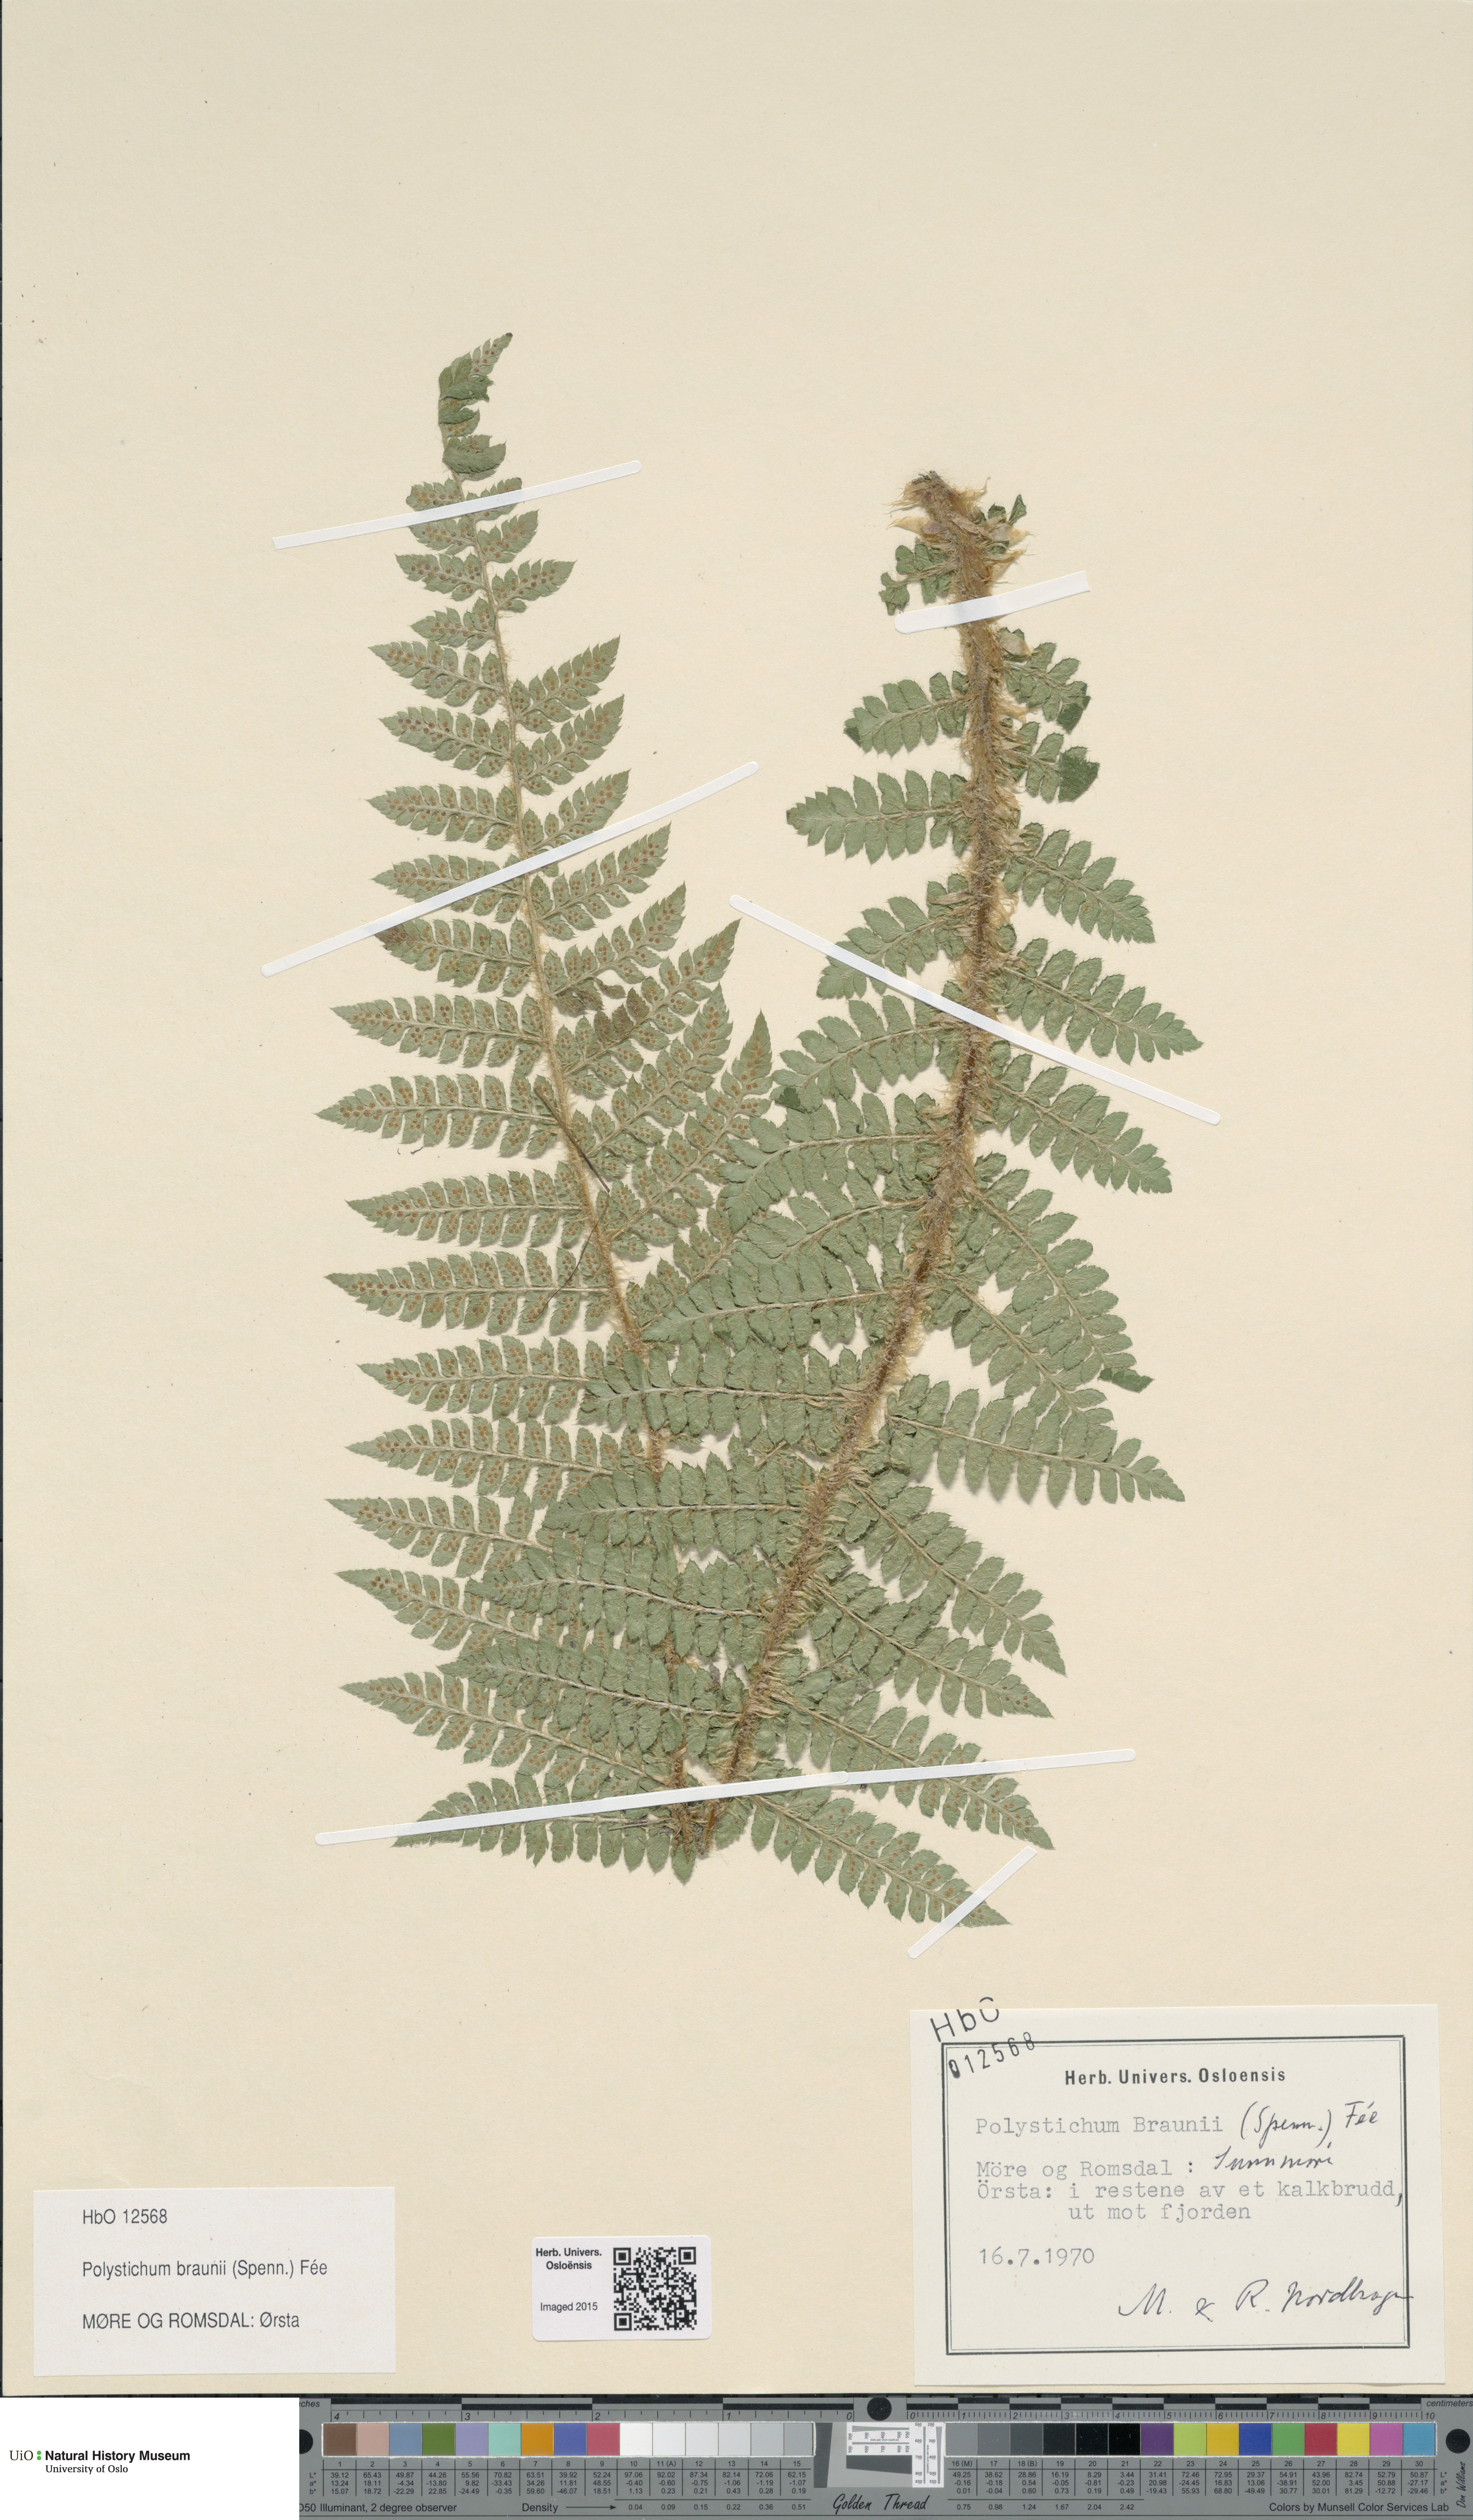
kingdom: Plantae
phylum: Tracheophyta
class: Polypodiopsida
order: Polypodiales
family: Dryopteridaceae
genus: Polystichum
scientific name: Polystichum braunii
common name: Braun's holly fern
